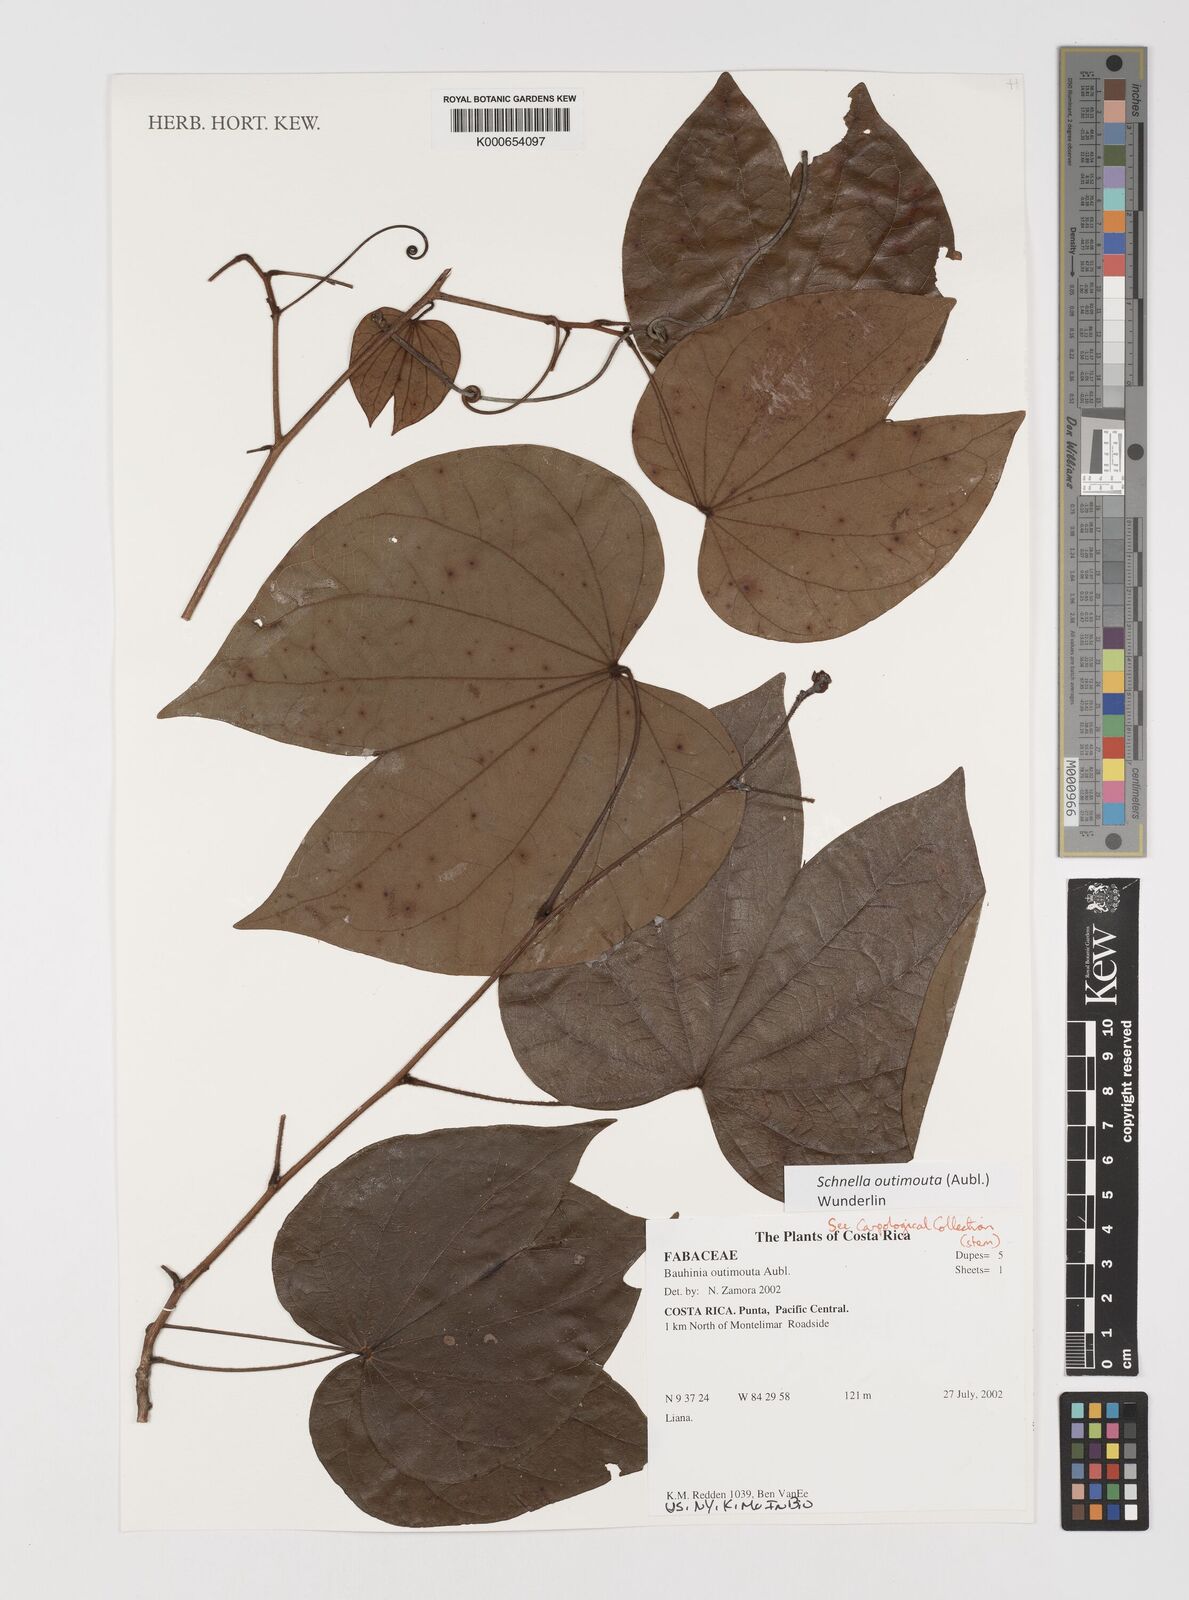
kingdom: Plantae
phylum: Tracheophyta
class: Magnoliopsida
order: Fabales
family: Fabaceae
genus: Schnella
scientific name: Schnella outimouta
